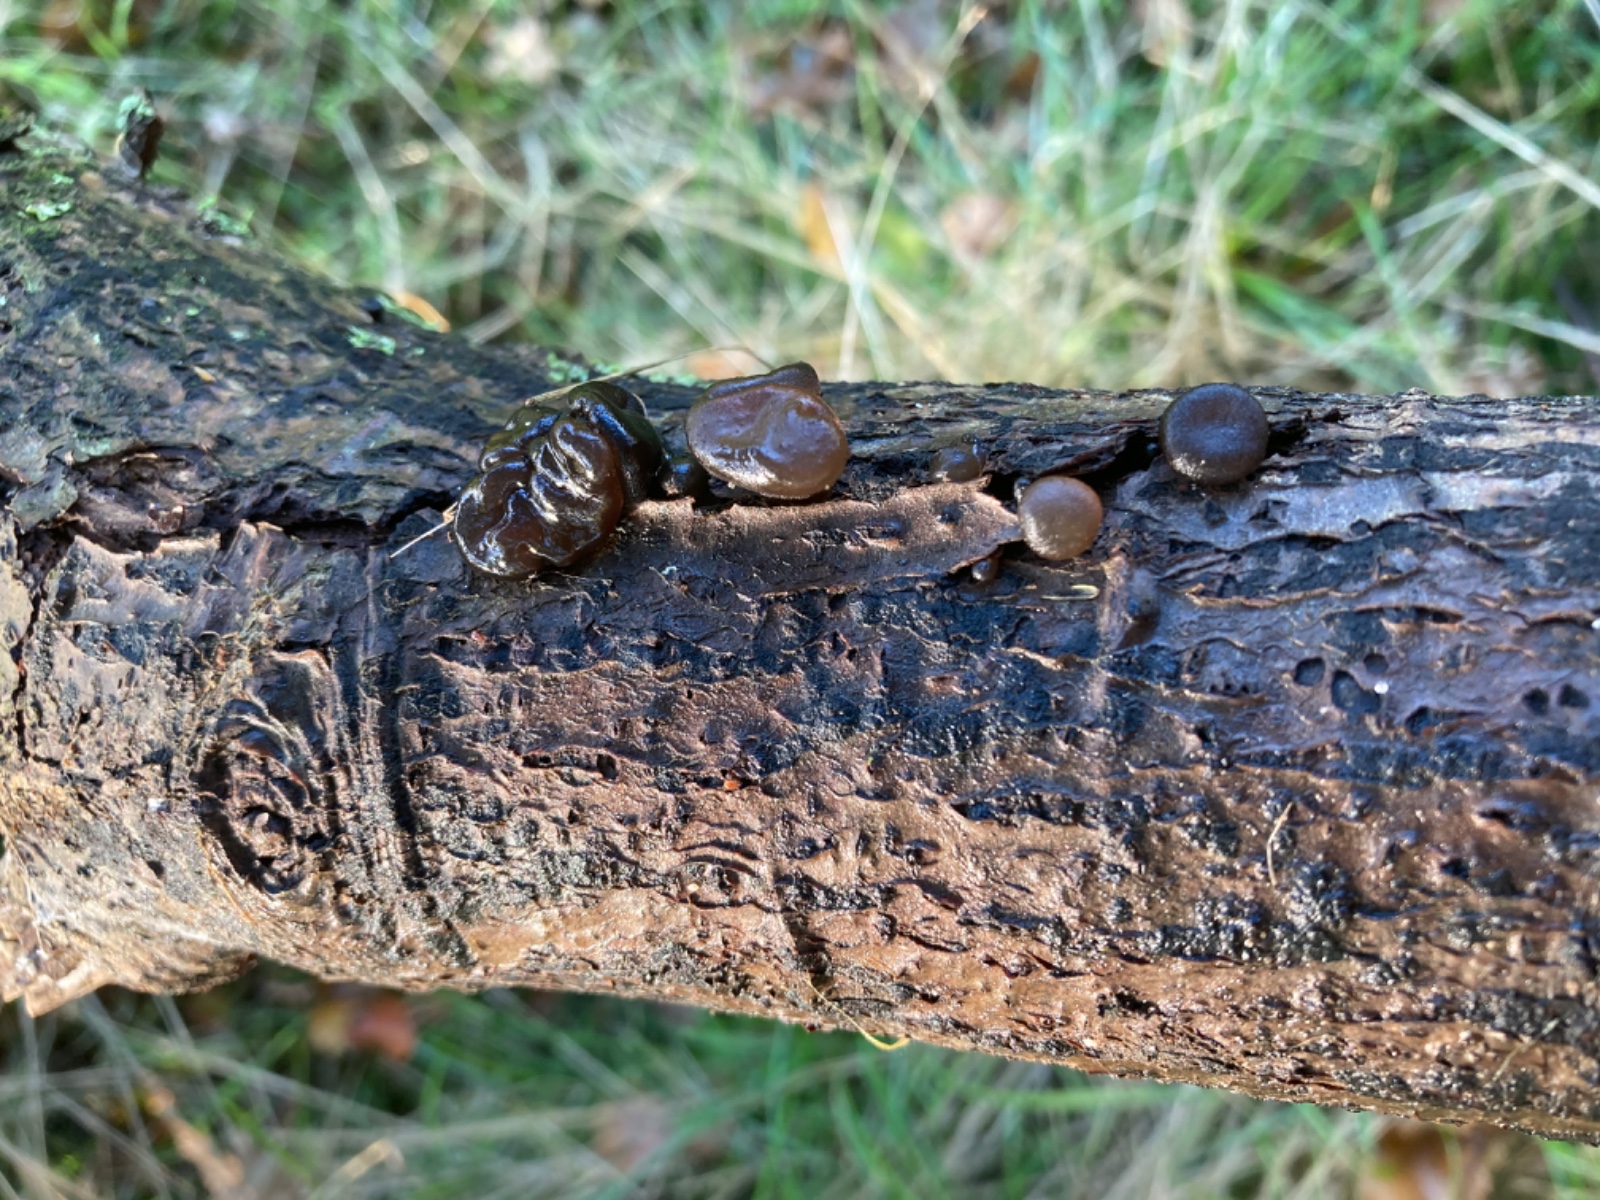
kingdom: Fungi
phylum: Basidiomycota
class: Agaricomycetes
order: Auriculariales
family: Auriculariaceae
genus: Exidia
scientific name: Exidia glandulosa
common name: ege-bævretop
